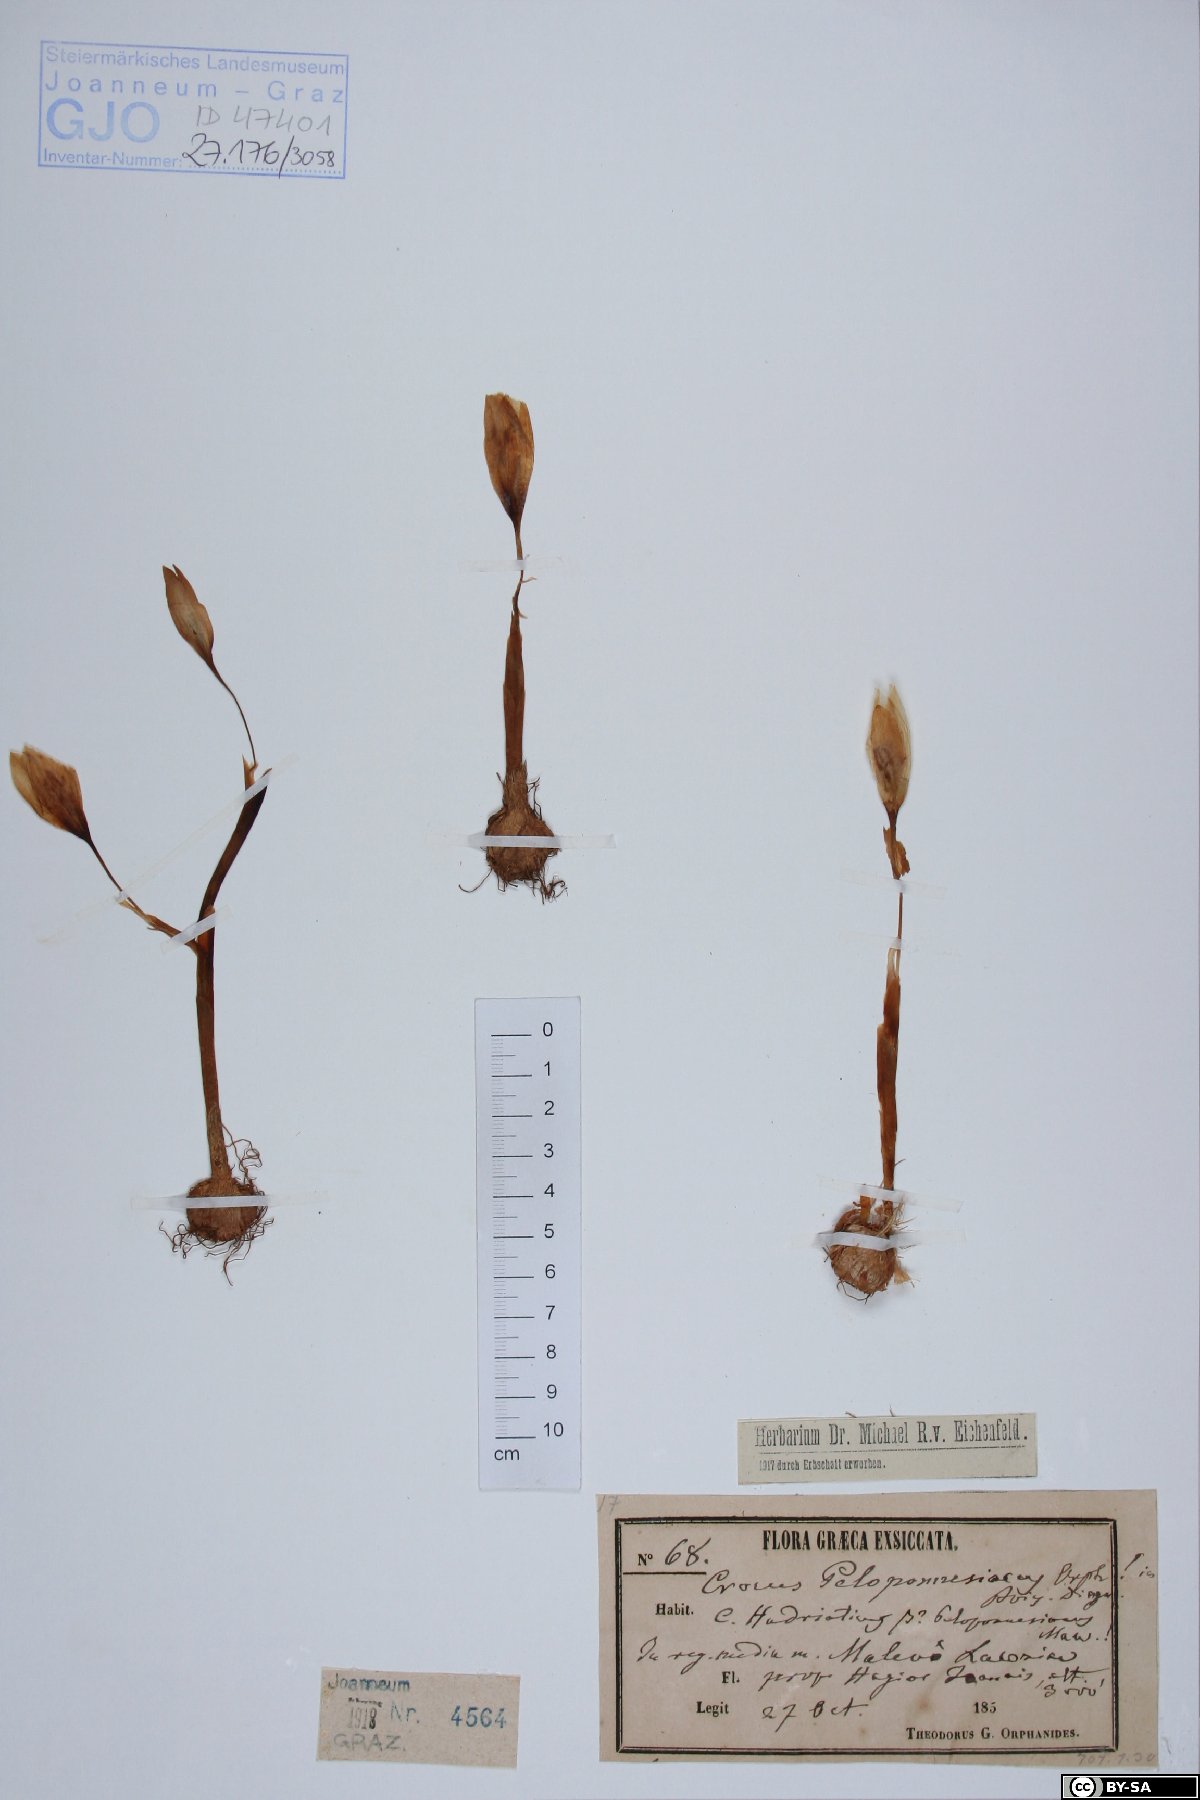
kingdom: Plantae
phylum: Tracheophyta
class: Liliopsida
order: Asparagales
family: Iridaceae
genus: Crocus
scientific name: Crocus hadriaticus
